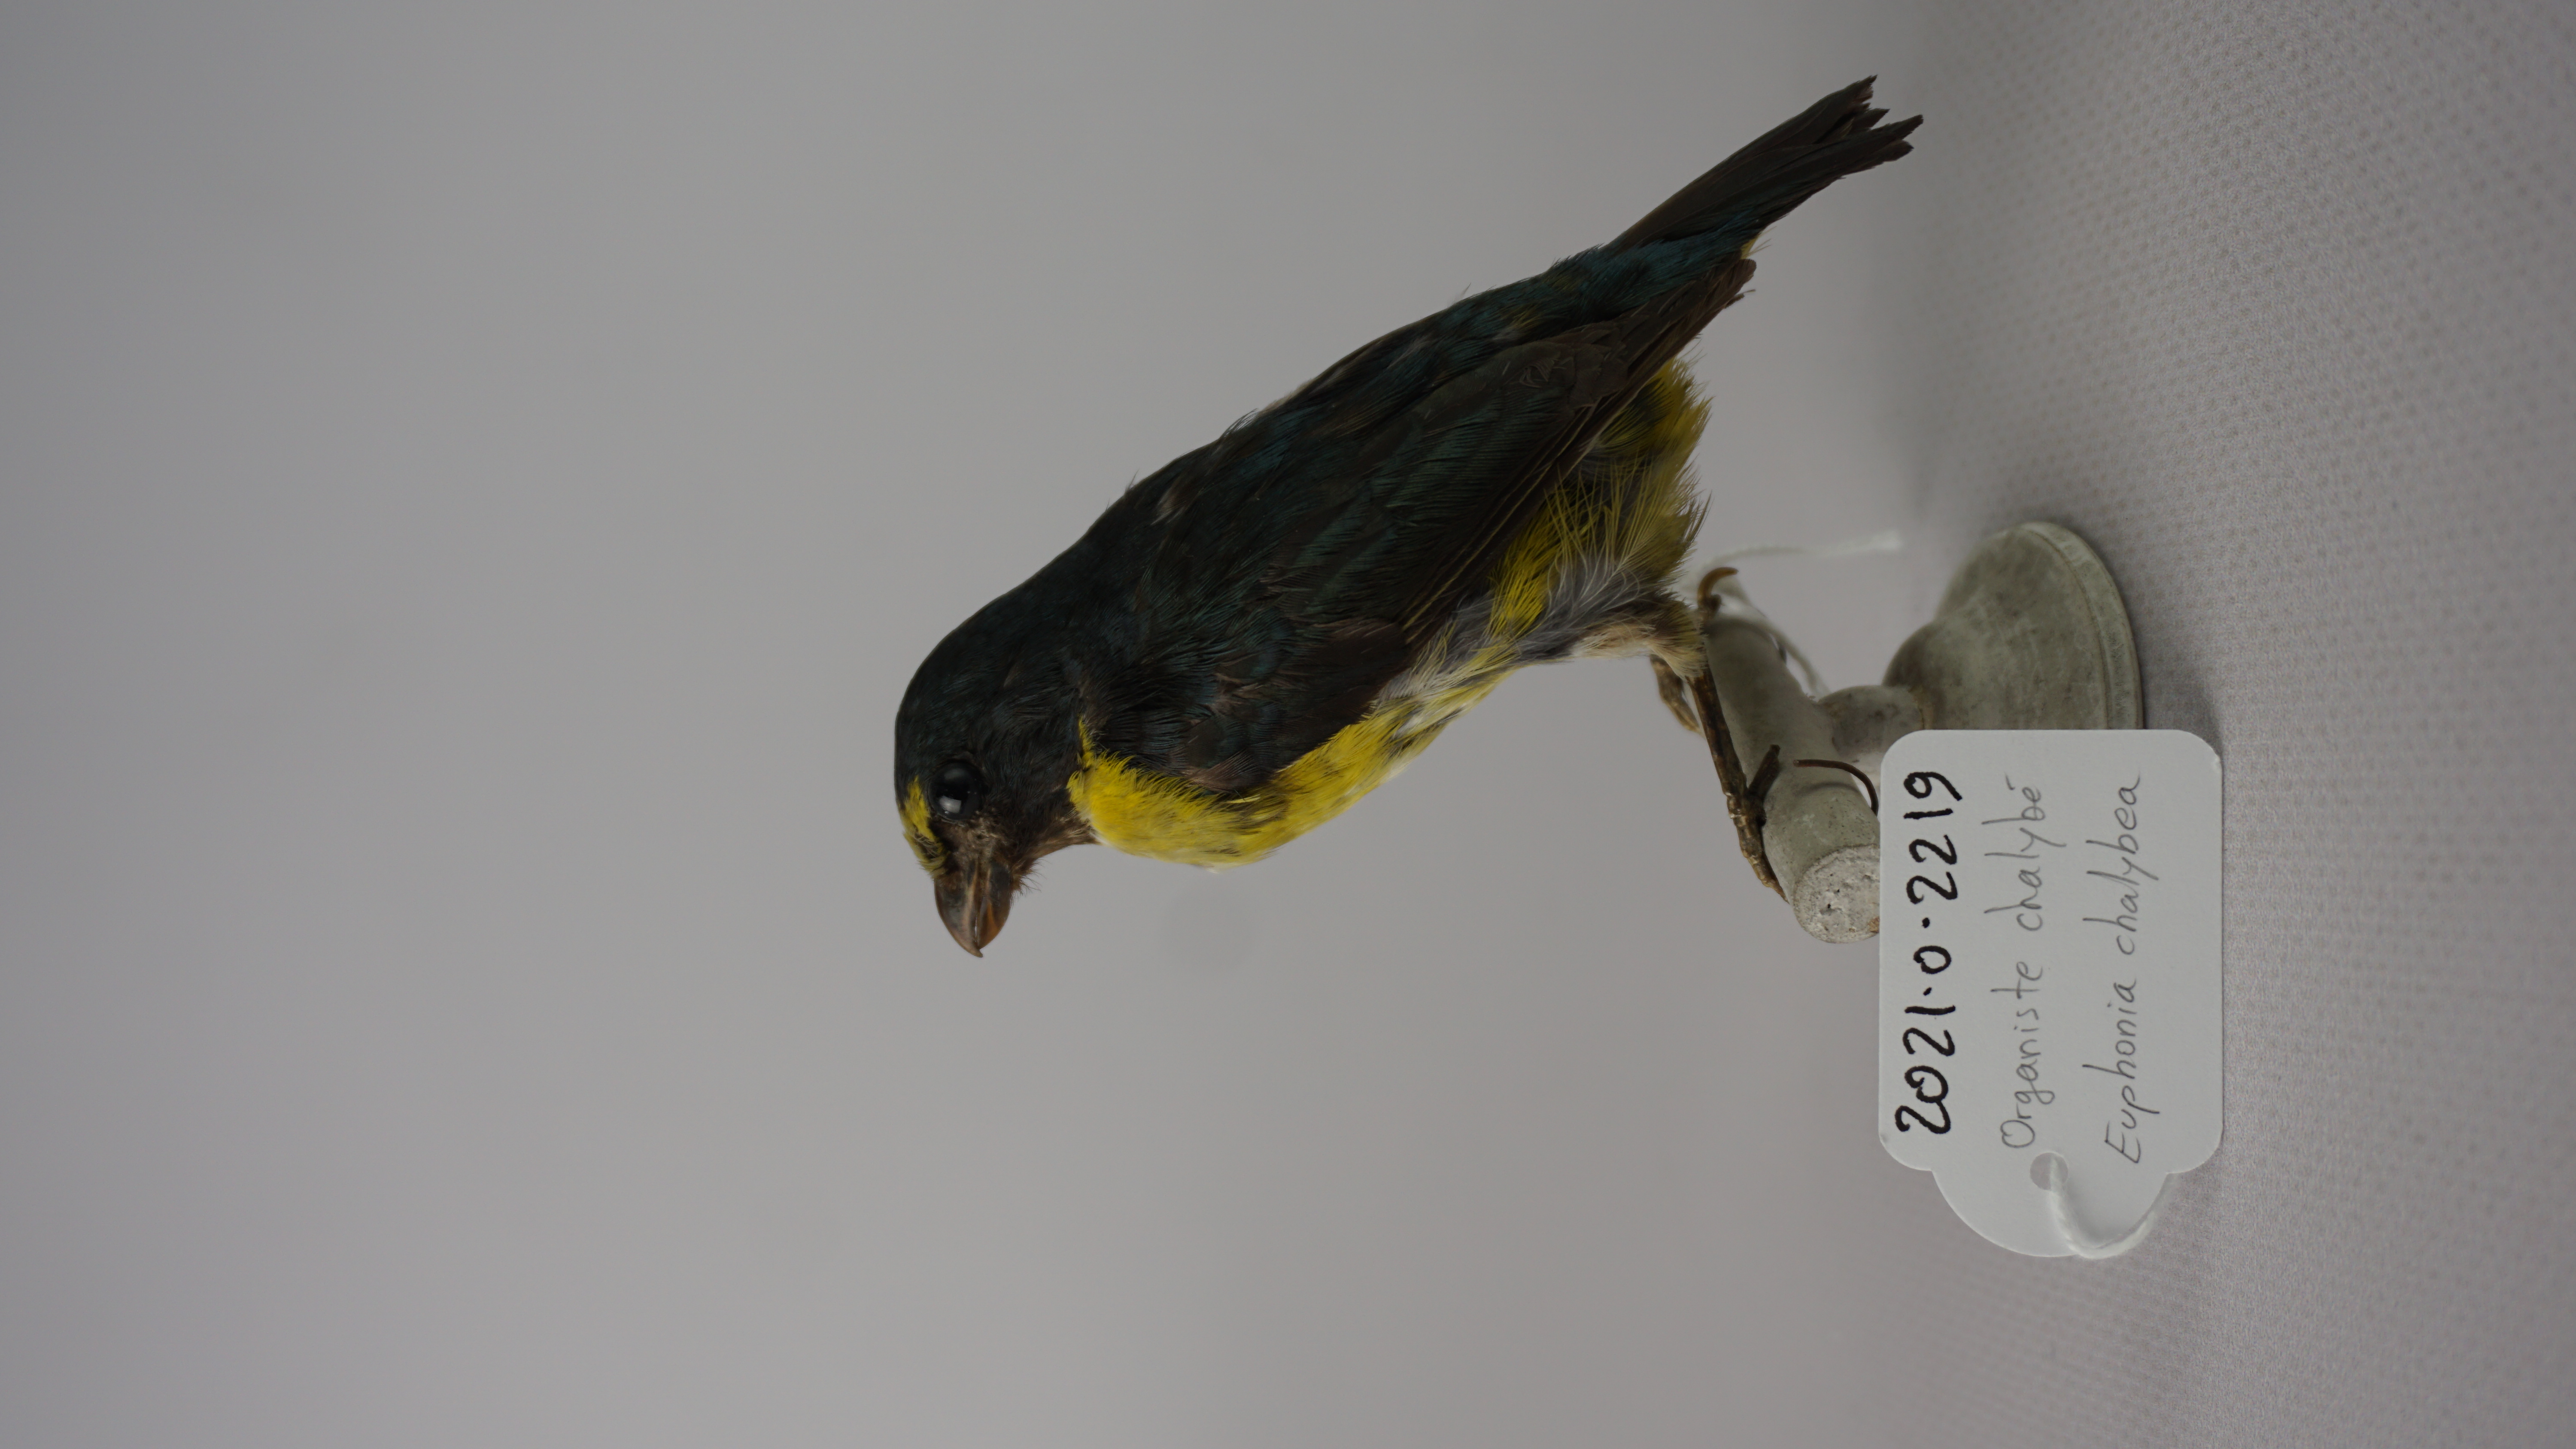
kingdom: Animalia
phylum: Chordata
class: Aves
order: Passeriformes
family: Fringillidae
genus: Euphonia
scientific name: Euphonia chalybea
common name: Green-chinned euphonia
